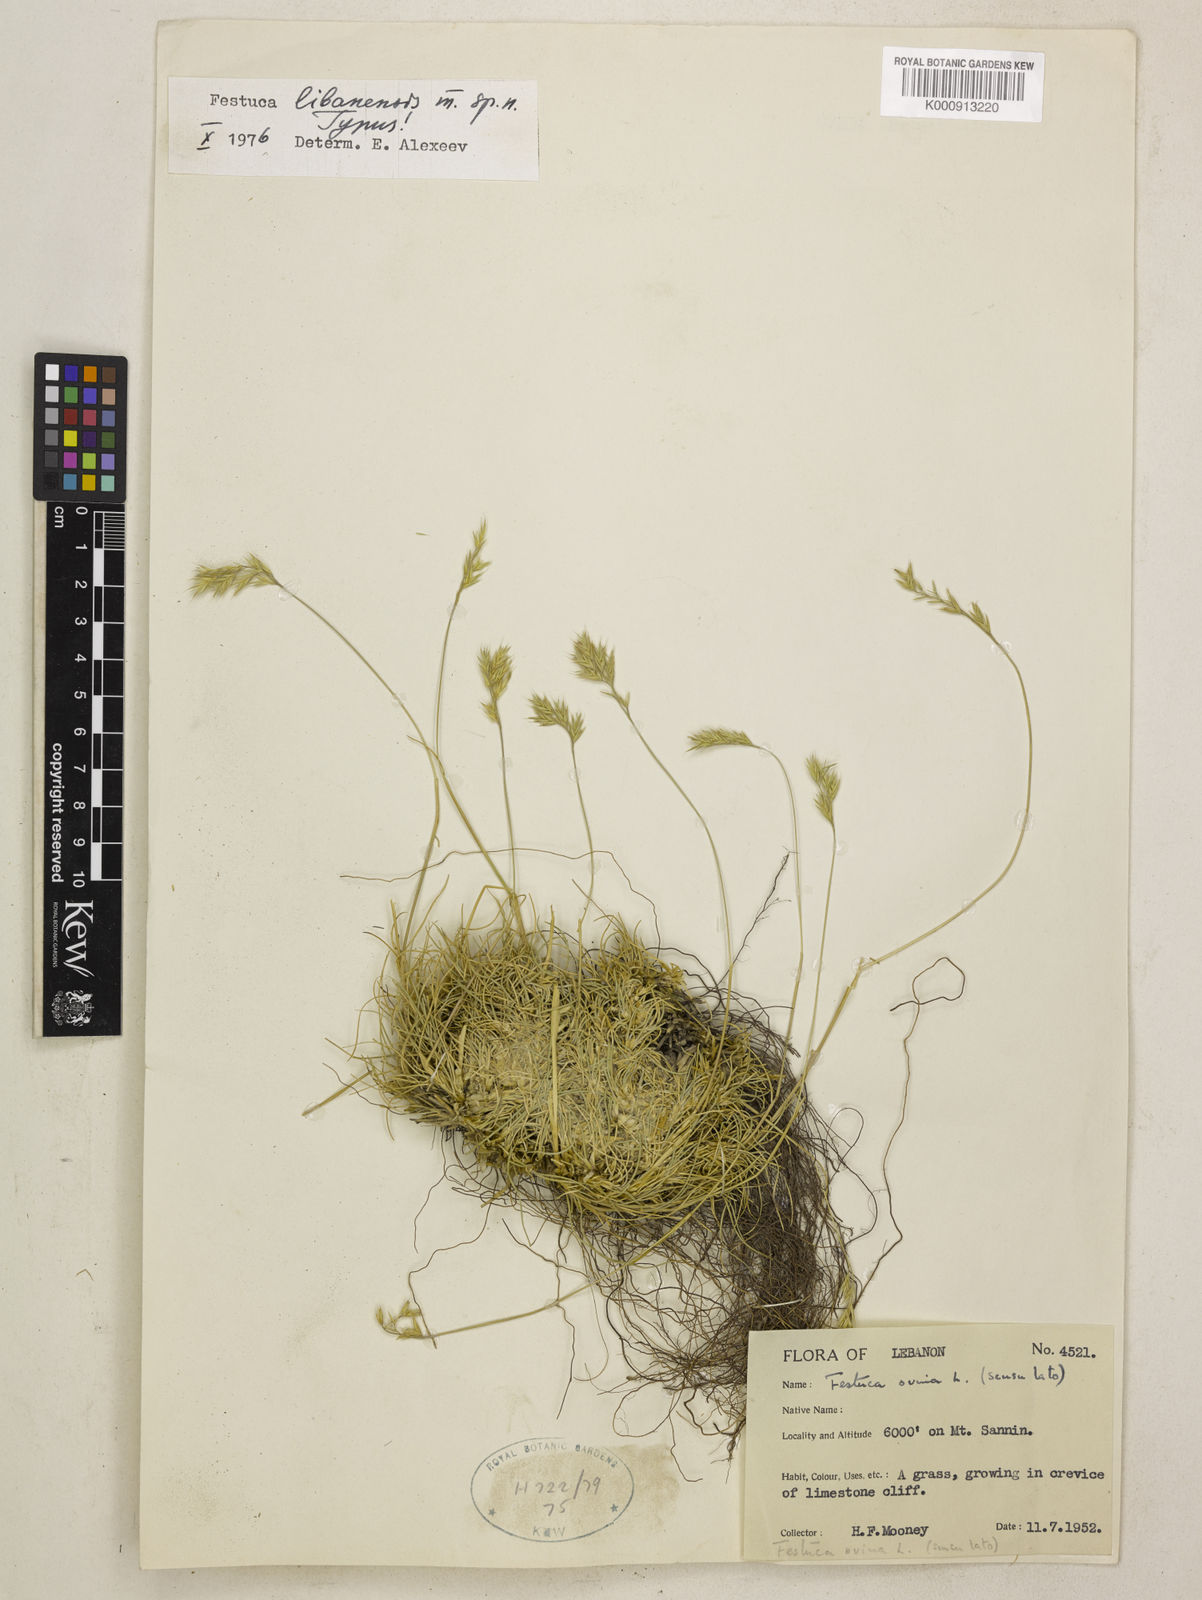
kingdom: Plantae
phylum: Tracheophyta
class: Liliopsida
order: Poales
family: Poaceae
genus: Festuca
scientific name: Festuca jeanpertii
